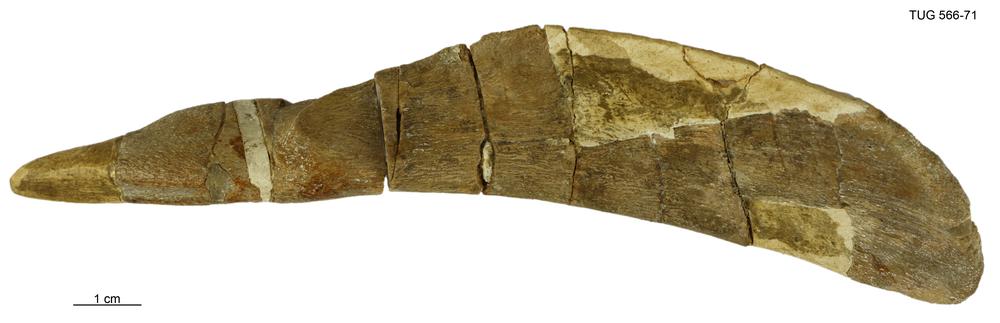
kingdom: Animalia
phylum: Chordata
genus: Homosteus
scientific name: Homosteus sulcatus
